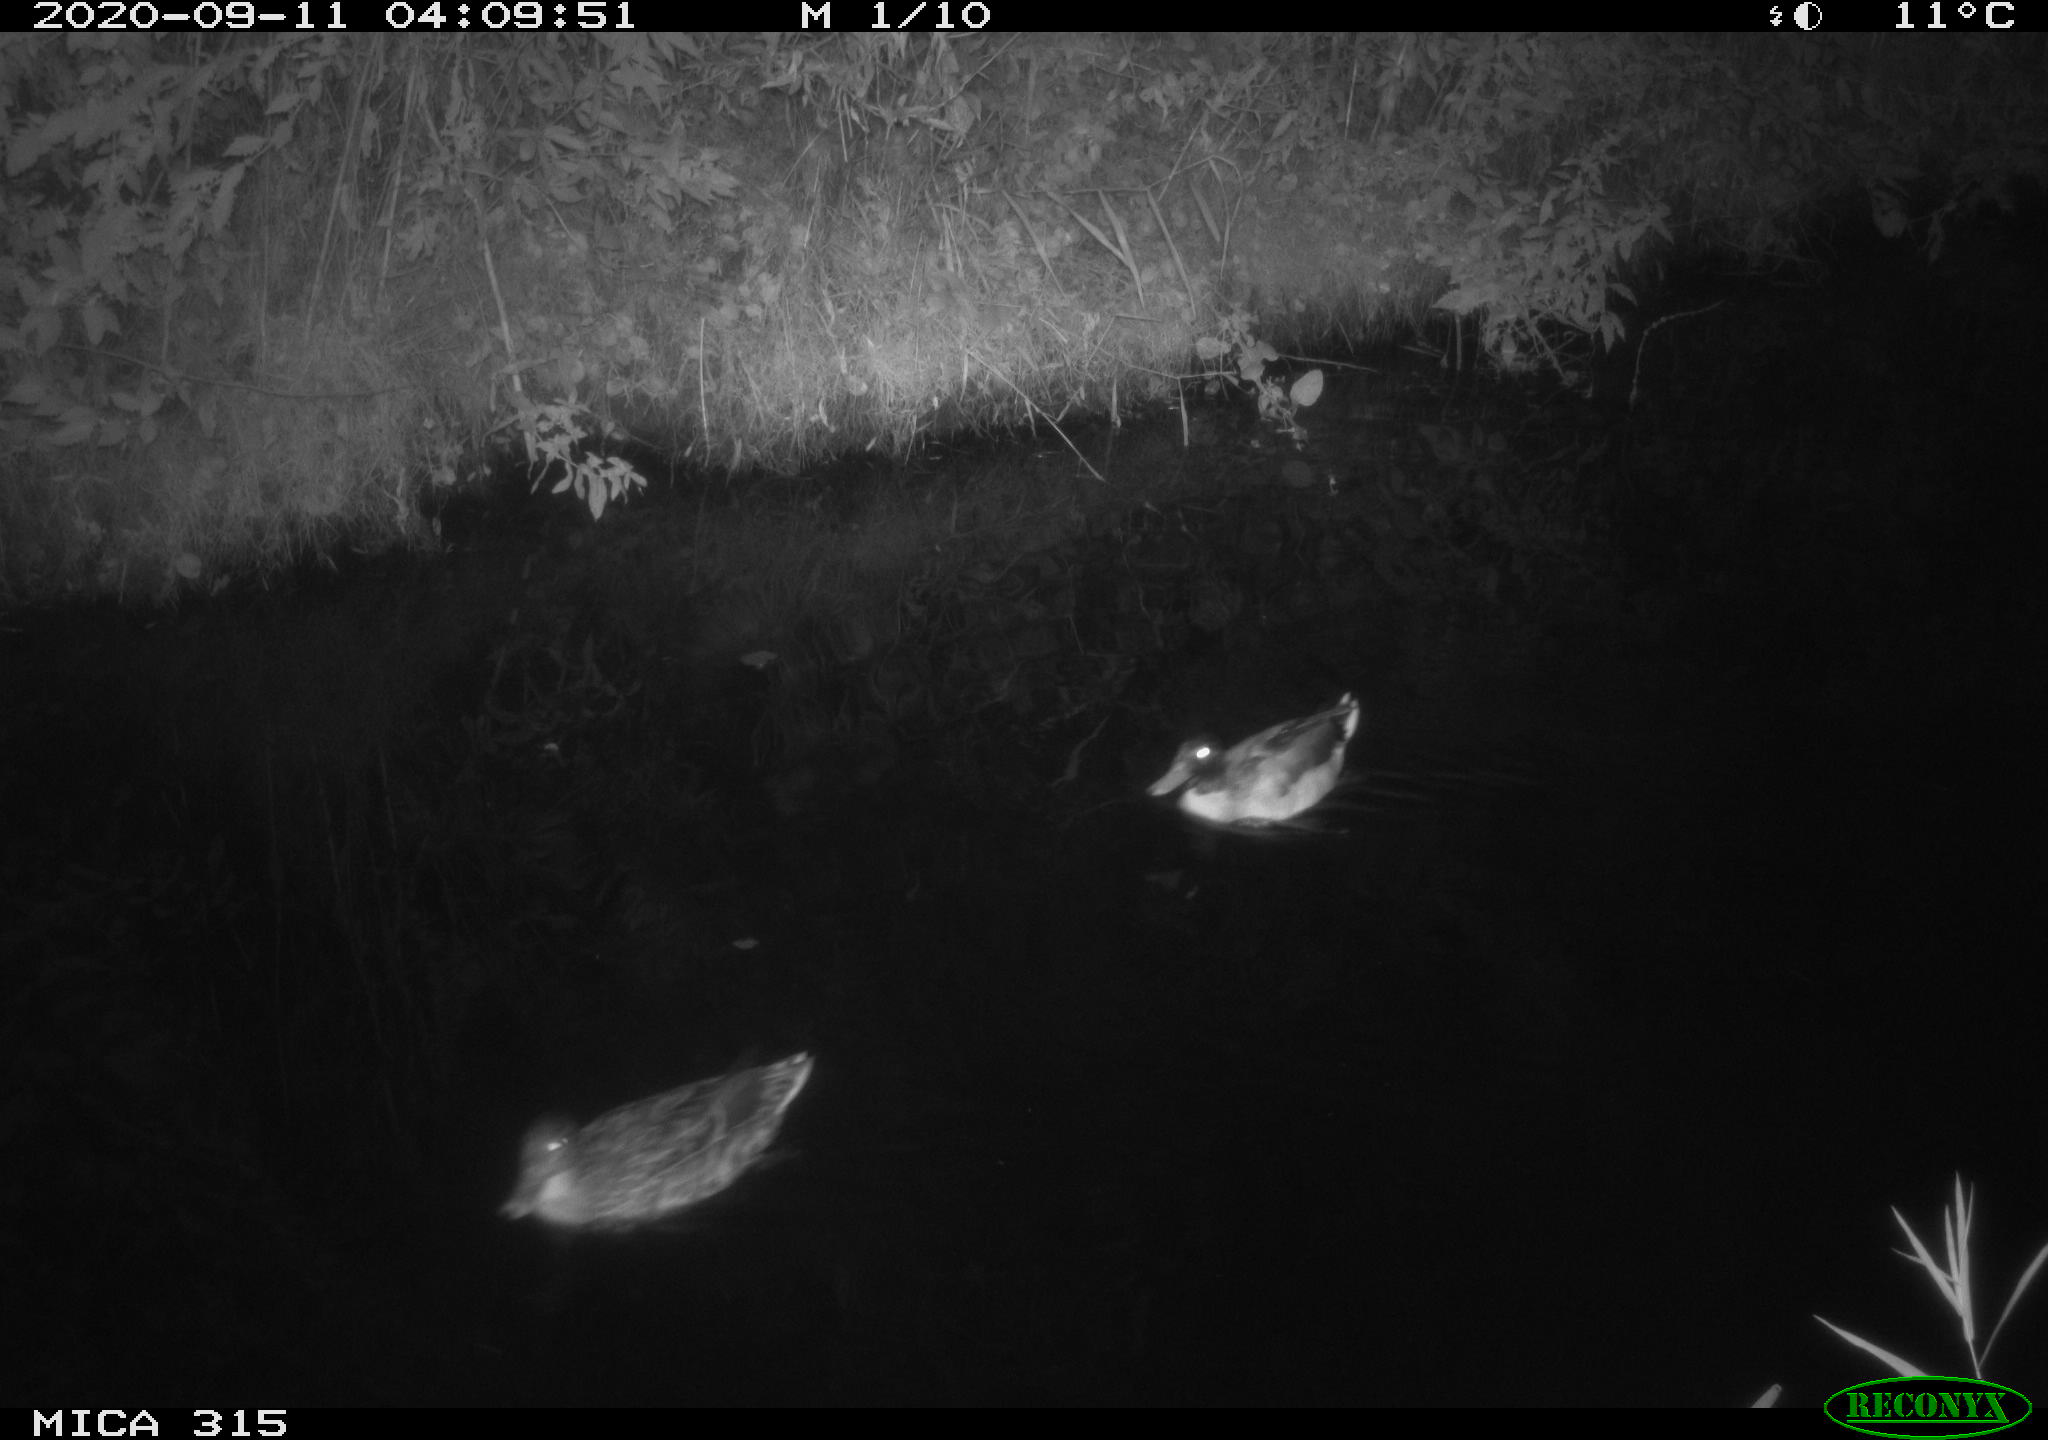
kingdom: Animalia
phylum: Chordata
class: Aves
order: Anseriformes
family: Anatidae
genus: Anas
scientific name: Anas platyrhynchos
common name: Mallard
